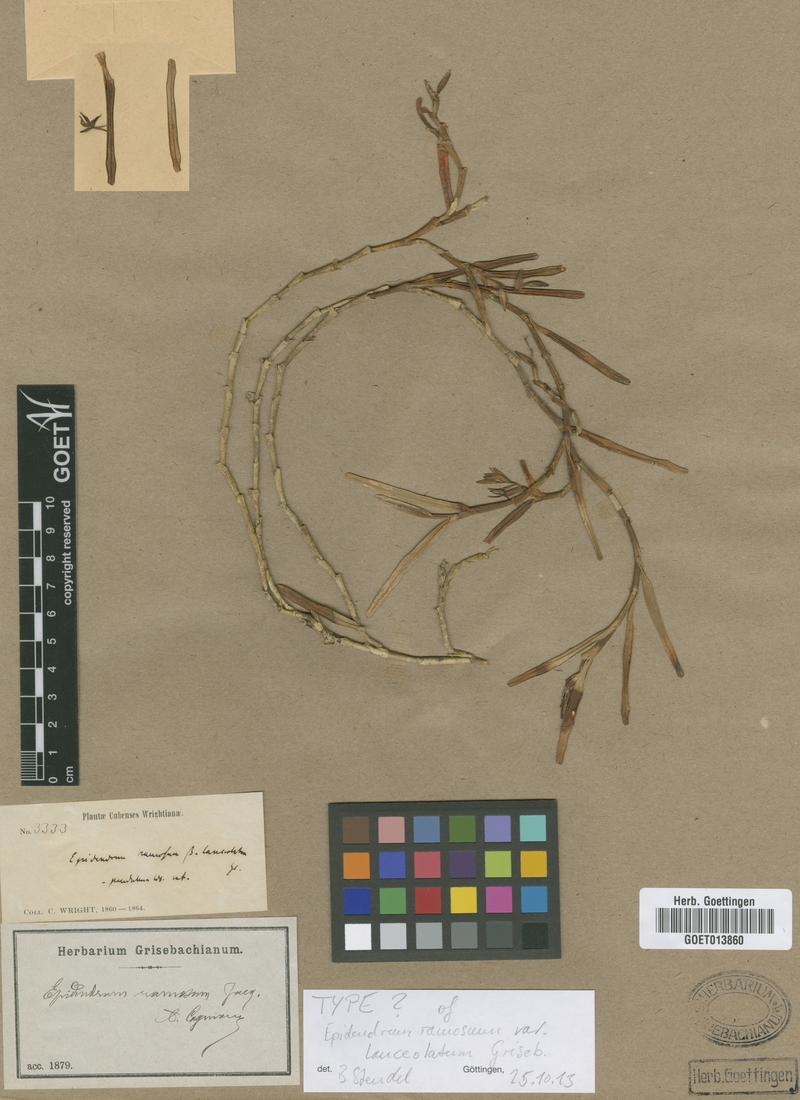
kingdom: Plantae
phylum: Tracheophyta
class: Liliopsida
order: Asparagales
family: Orchidaceae
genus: Epidendrum
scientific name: Epidendrum acunae
